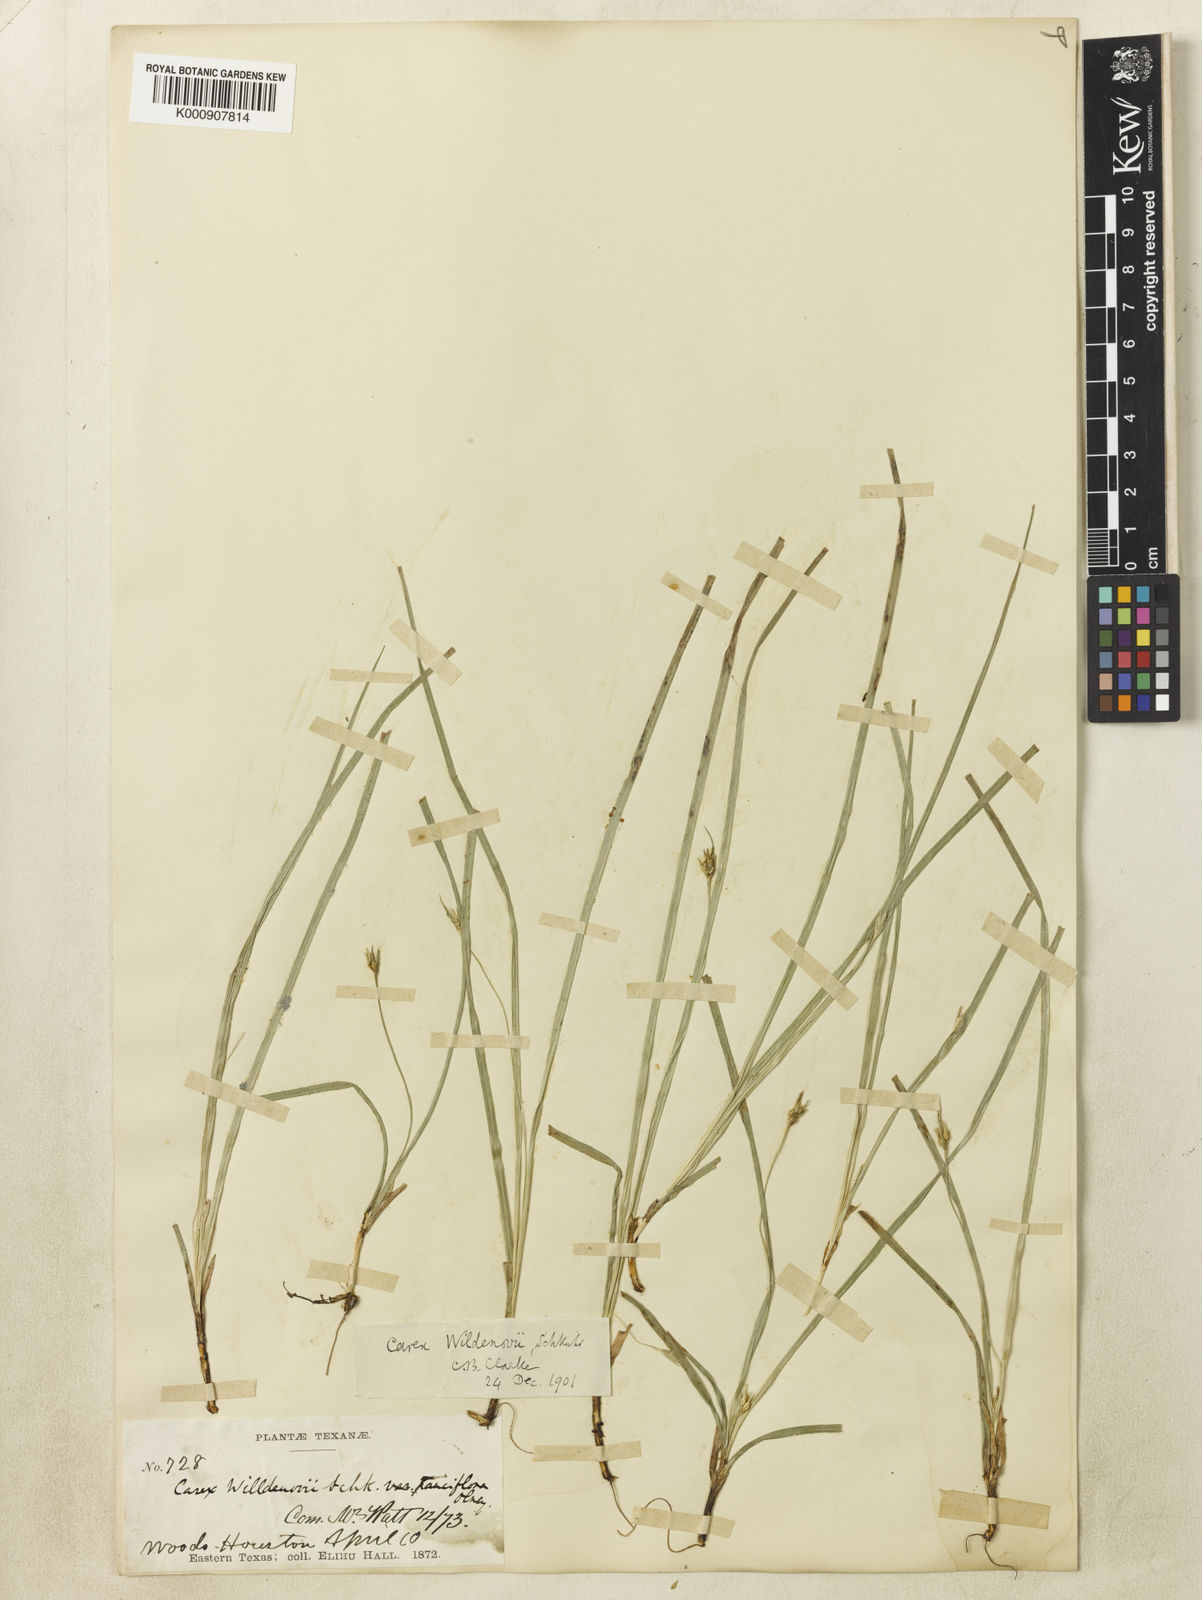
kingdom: Plantae
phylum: Tracheophyta
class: Liliopsida
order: Poales
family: Cyperaceae
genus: Carex
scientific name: Carex
